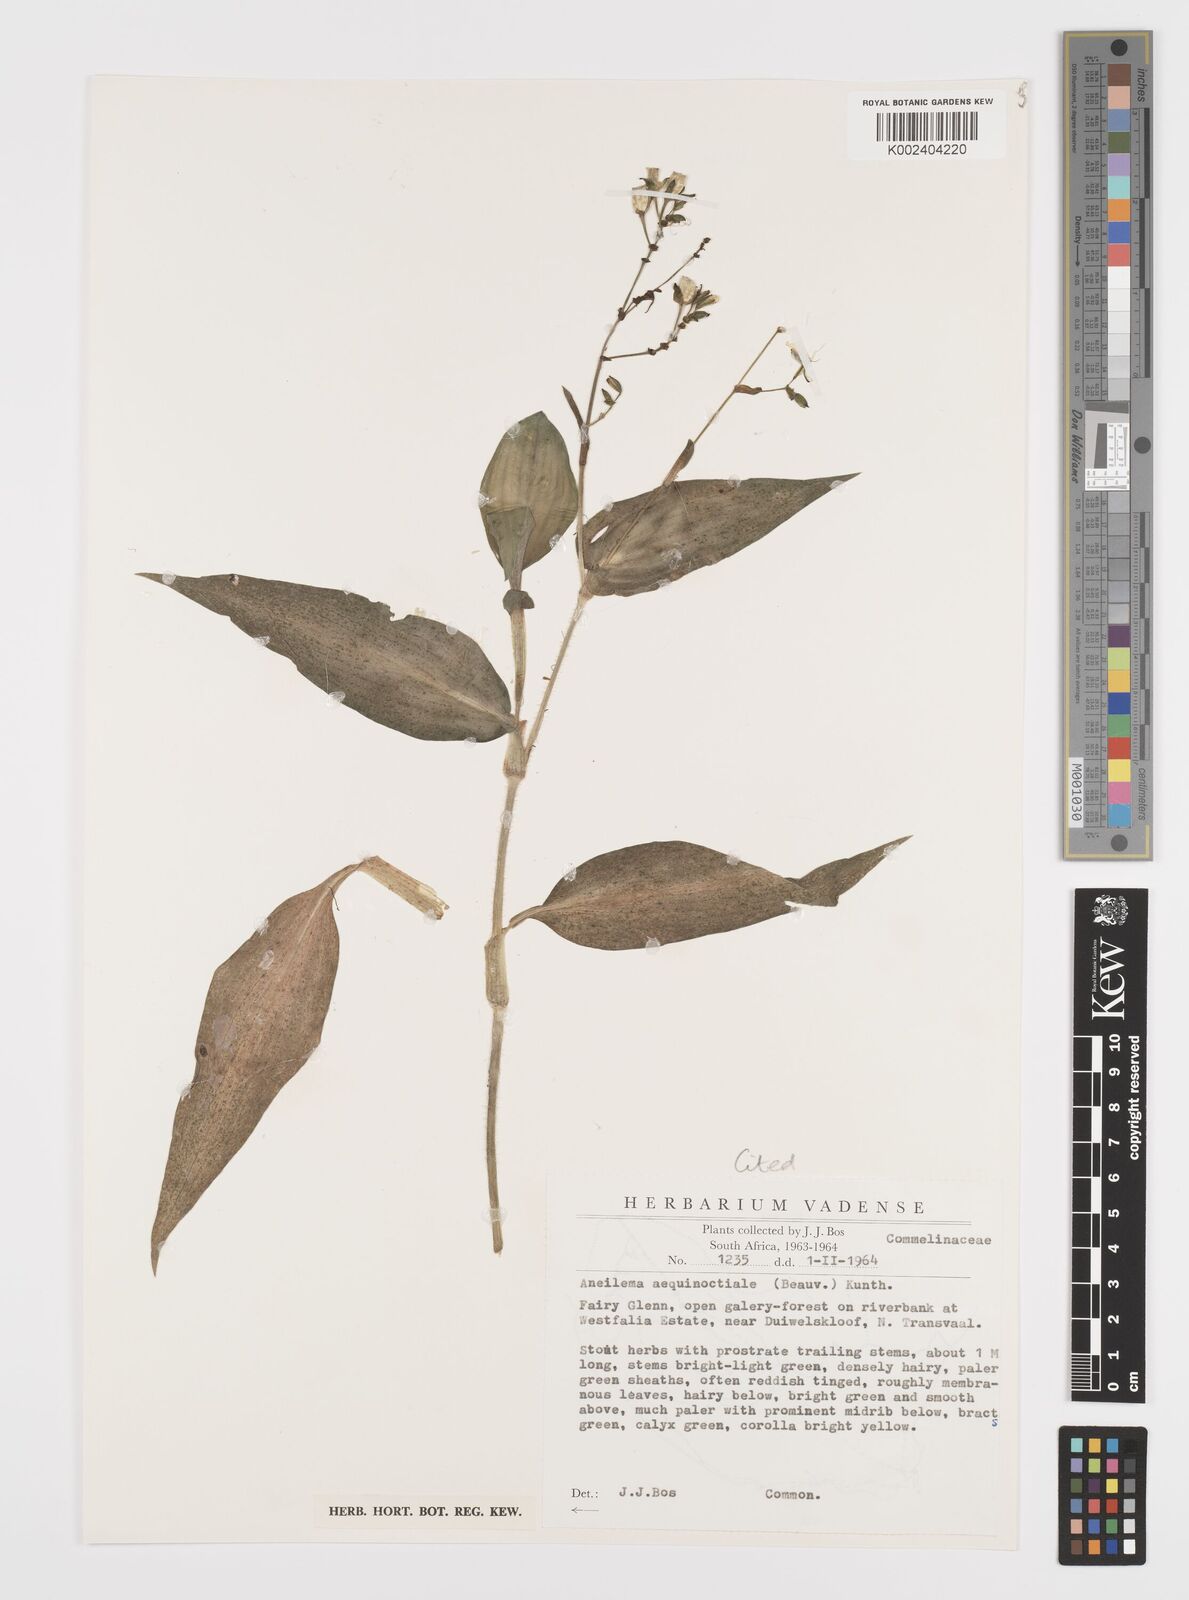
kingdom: Plantae
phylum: Tracheophyta
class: Liliopsida
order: Commelinales
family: Commelinaceae
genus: Aneilema
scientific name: Aneilema aequinoctiale
